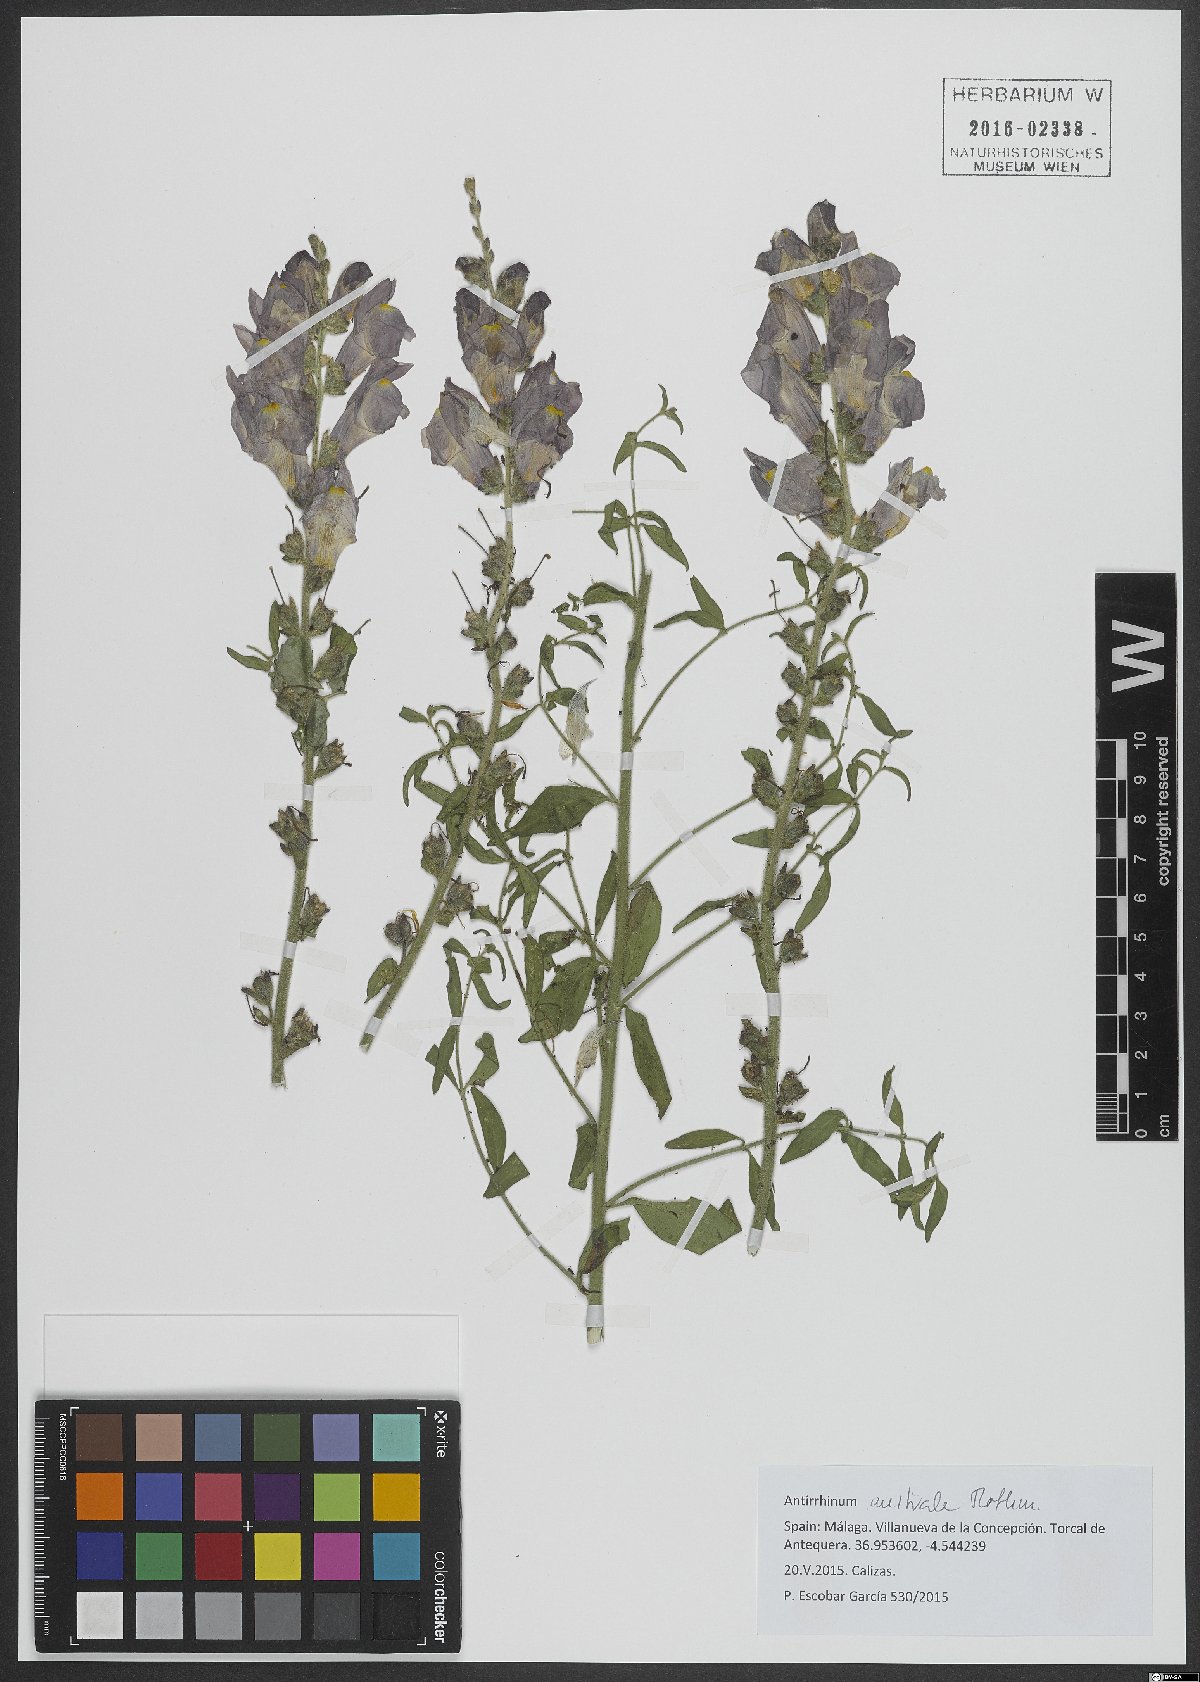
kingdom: Plantae
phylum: Tracheophyta
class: Magnoliopsida
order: Lamiales
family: Plantaginaceae
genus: Antirrhinum
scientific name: Antirrhinum australe
